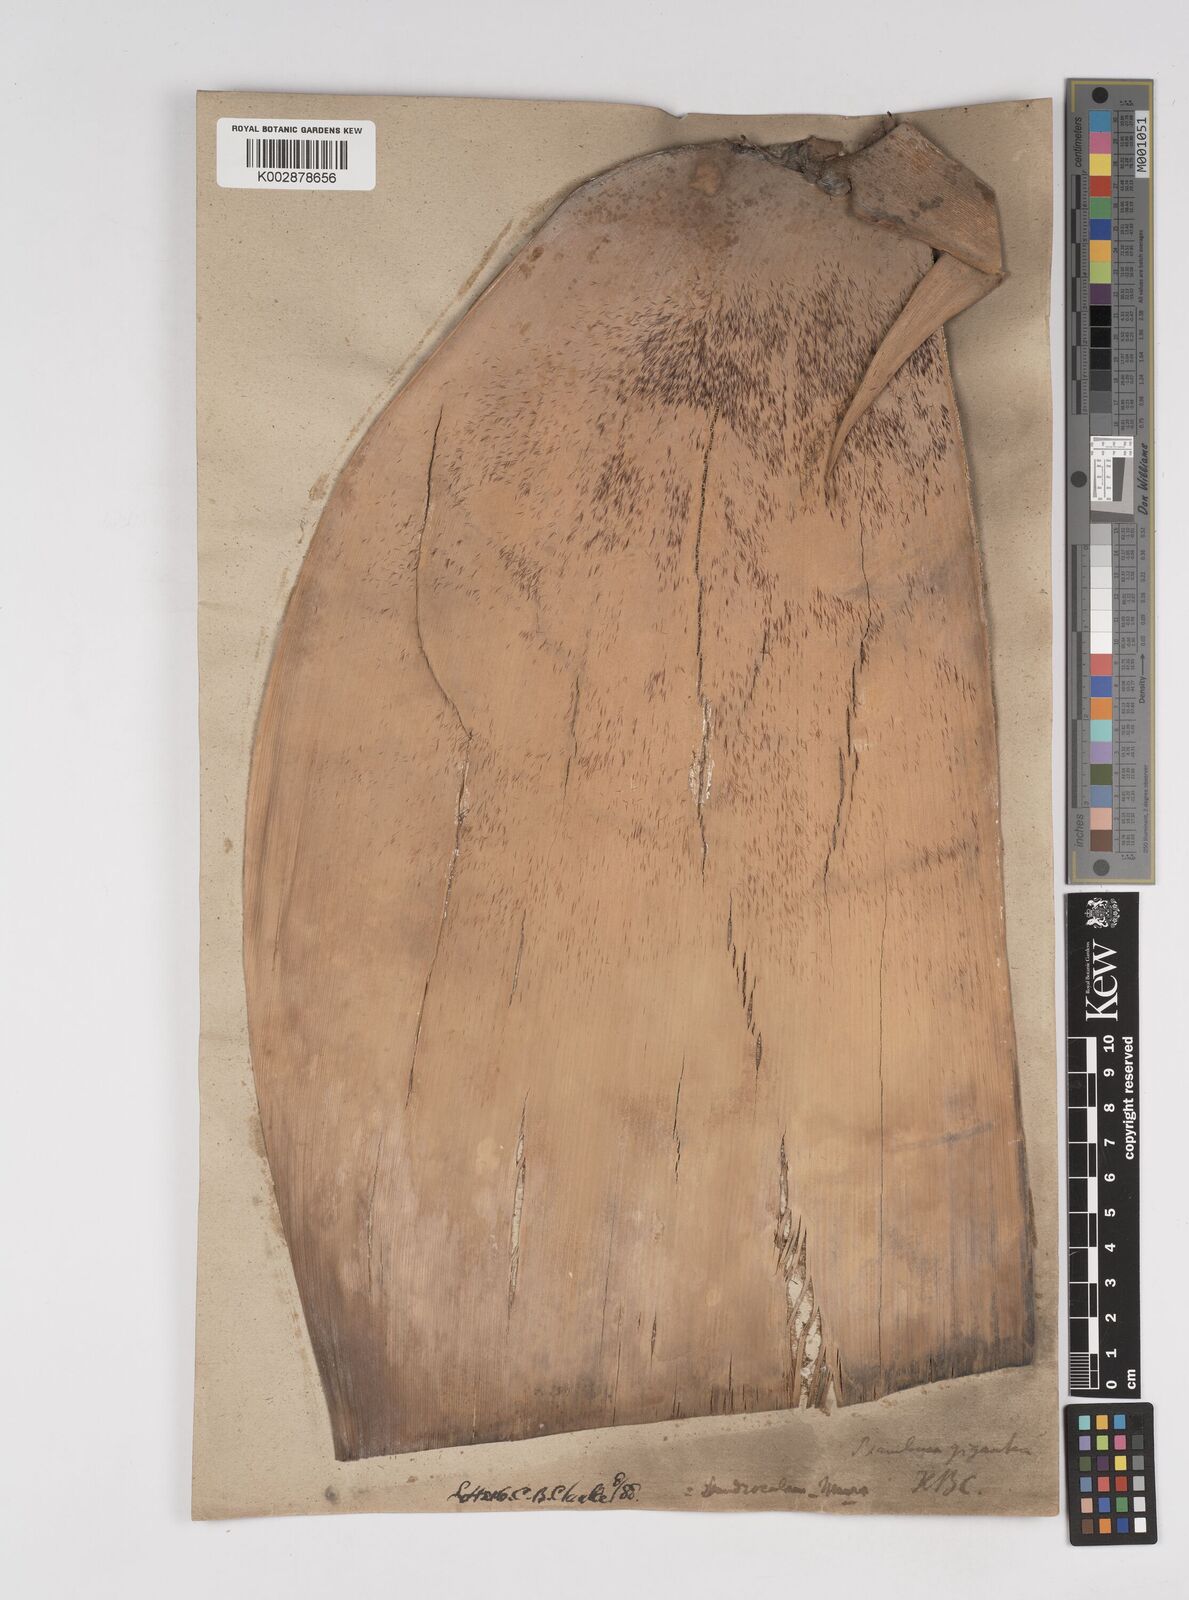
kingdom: Plantae
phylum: Tracheophyta
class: Liliopsida
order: Poales
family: Poaceae
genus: Dendrocalamus
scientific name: Dendrocalamus giganteus
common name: Giant bamboo
